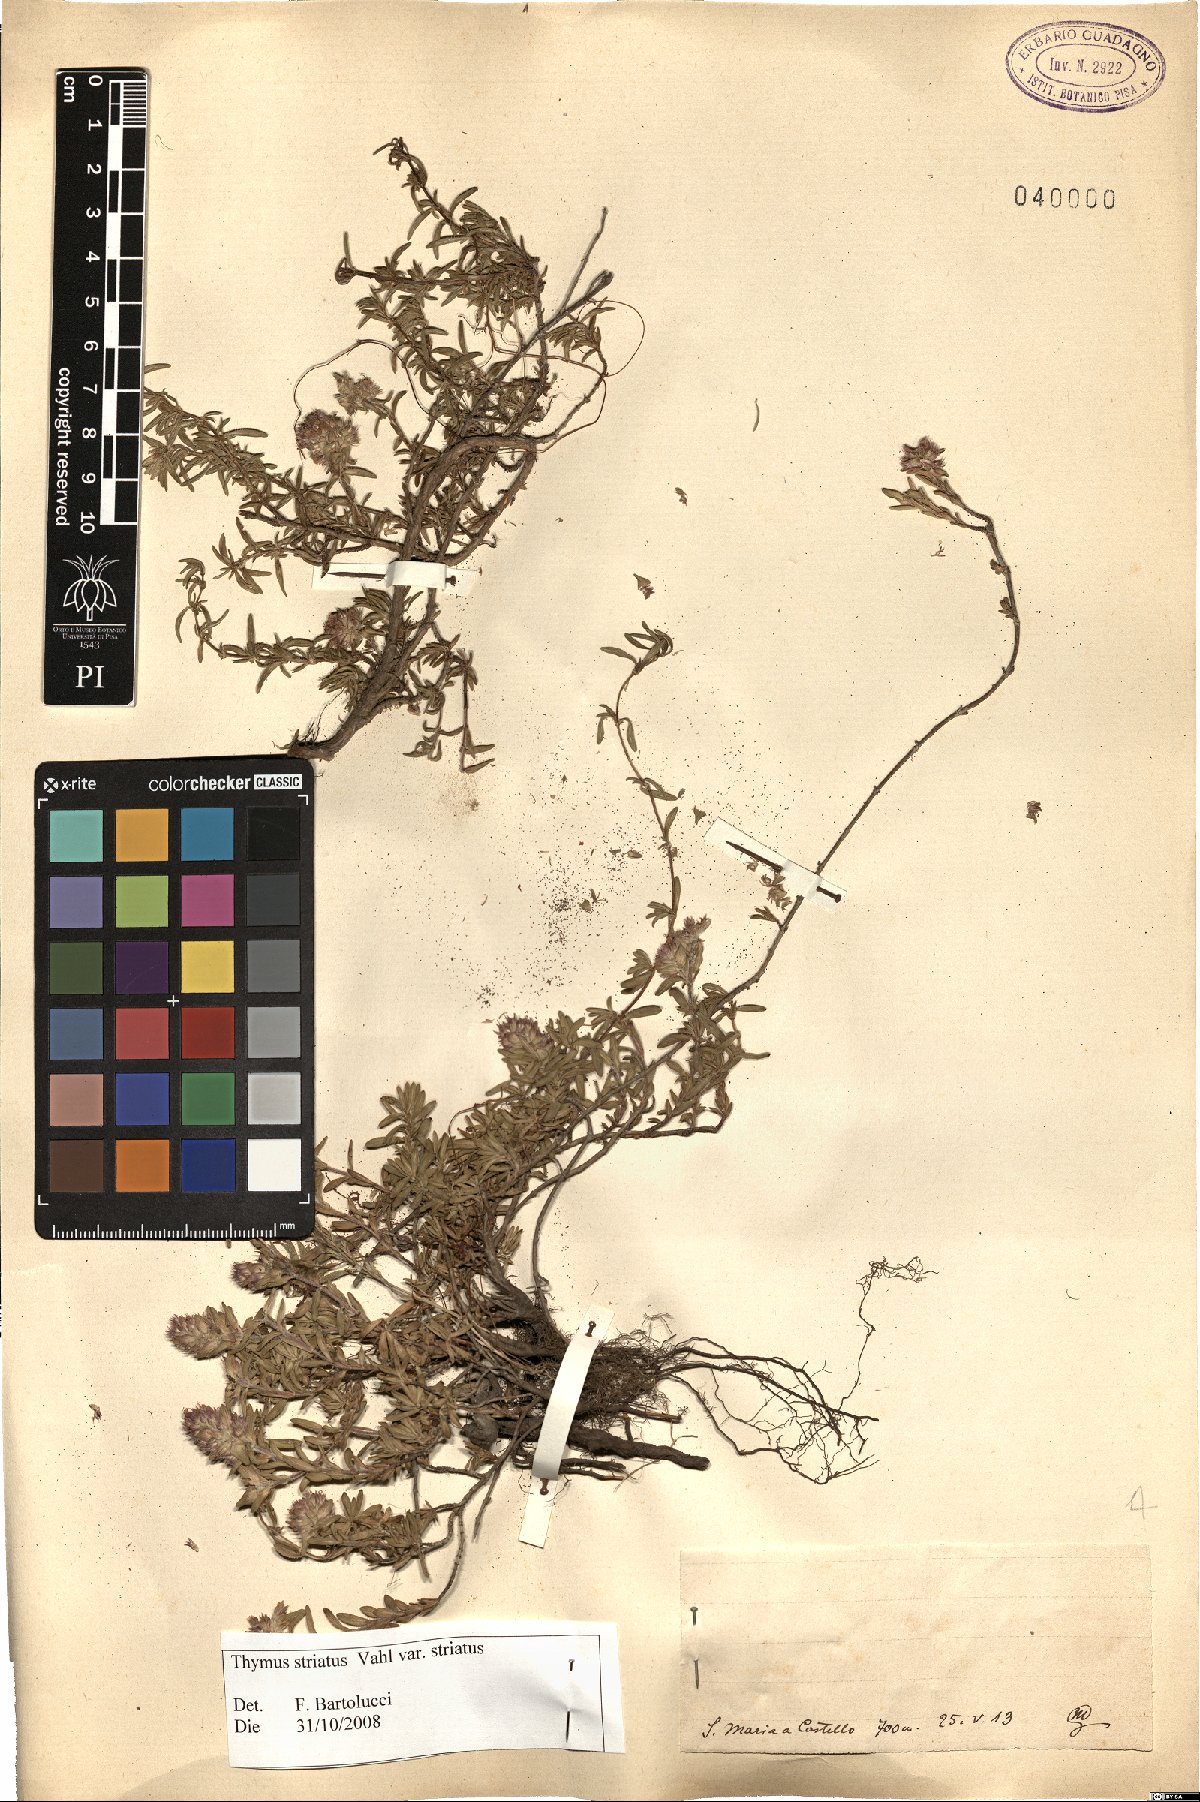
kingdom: Plantae
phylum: Tracheophyta
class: Magnoliopsida
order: Lamiales
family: Lamiaceae
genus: Thymus
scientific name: Thymus striatus
